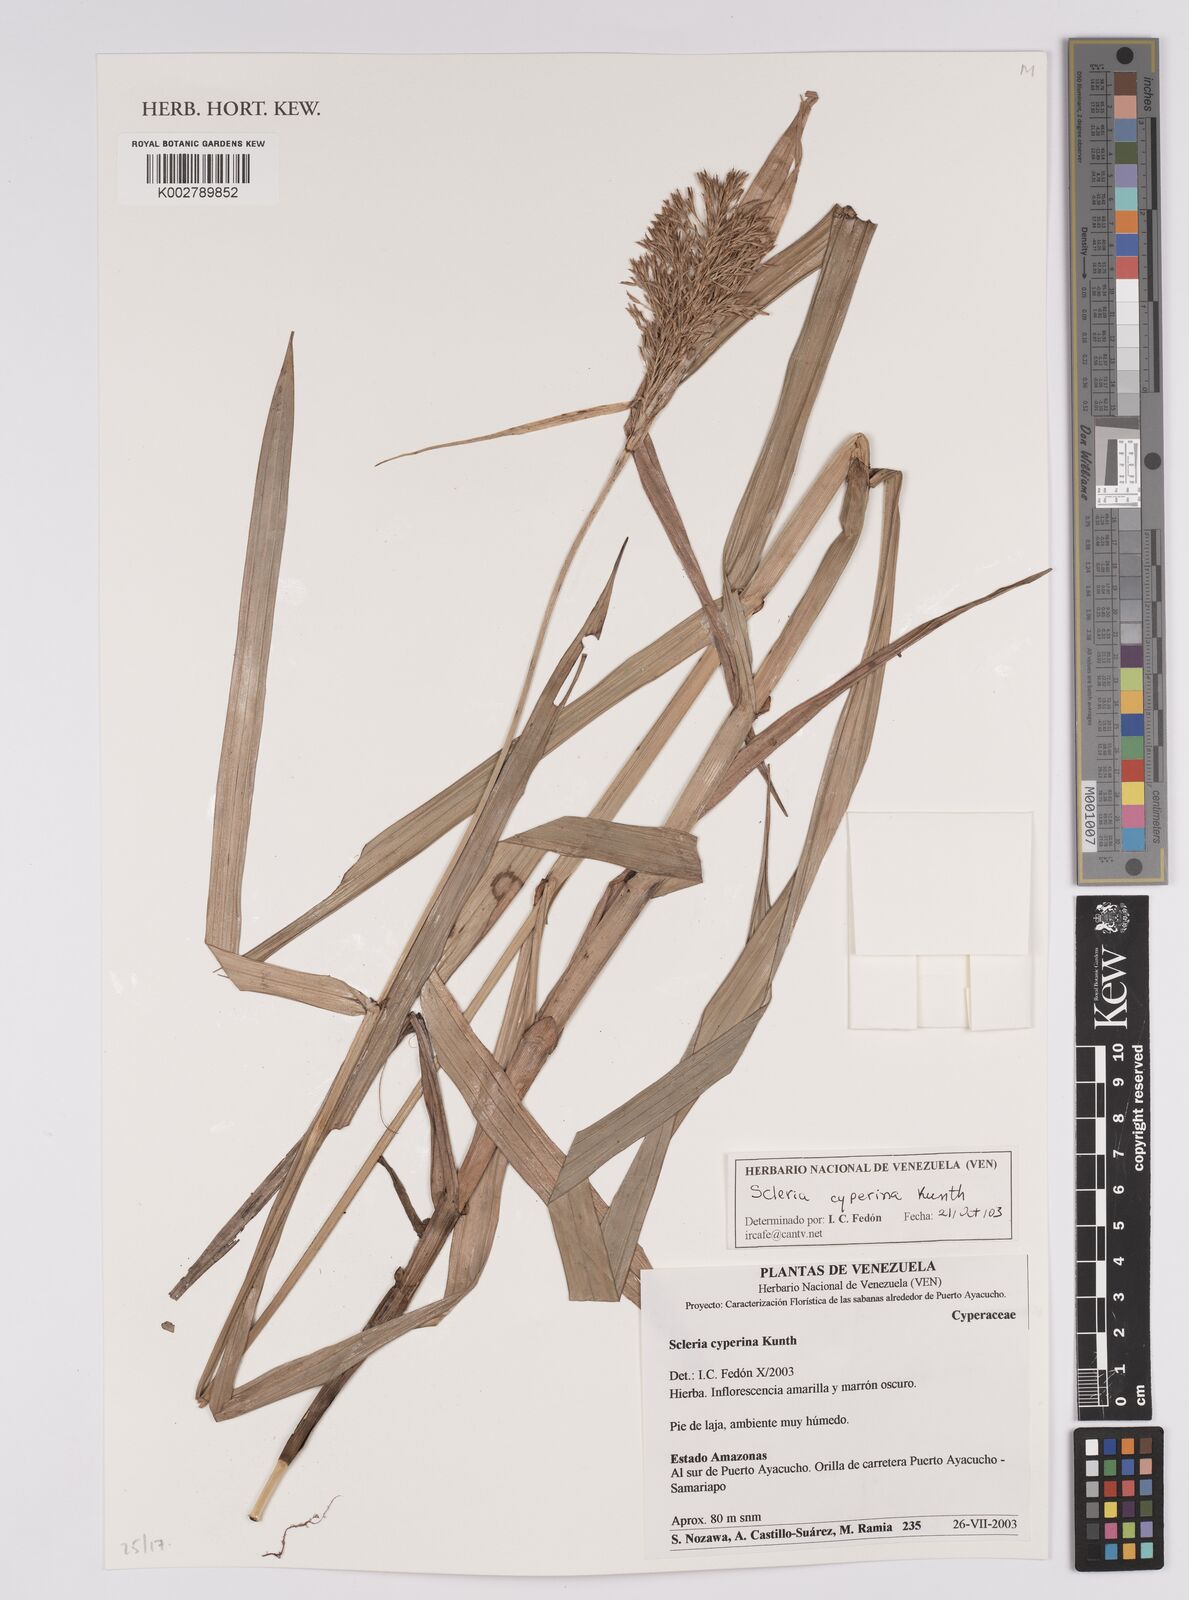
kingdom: Plantae
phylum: Tracheophyta
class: Liliopsida
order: Poales
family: Cyperaceae
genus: Scleria
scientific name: Scleria cyperina
